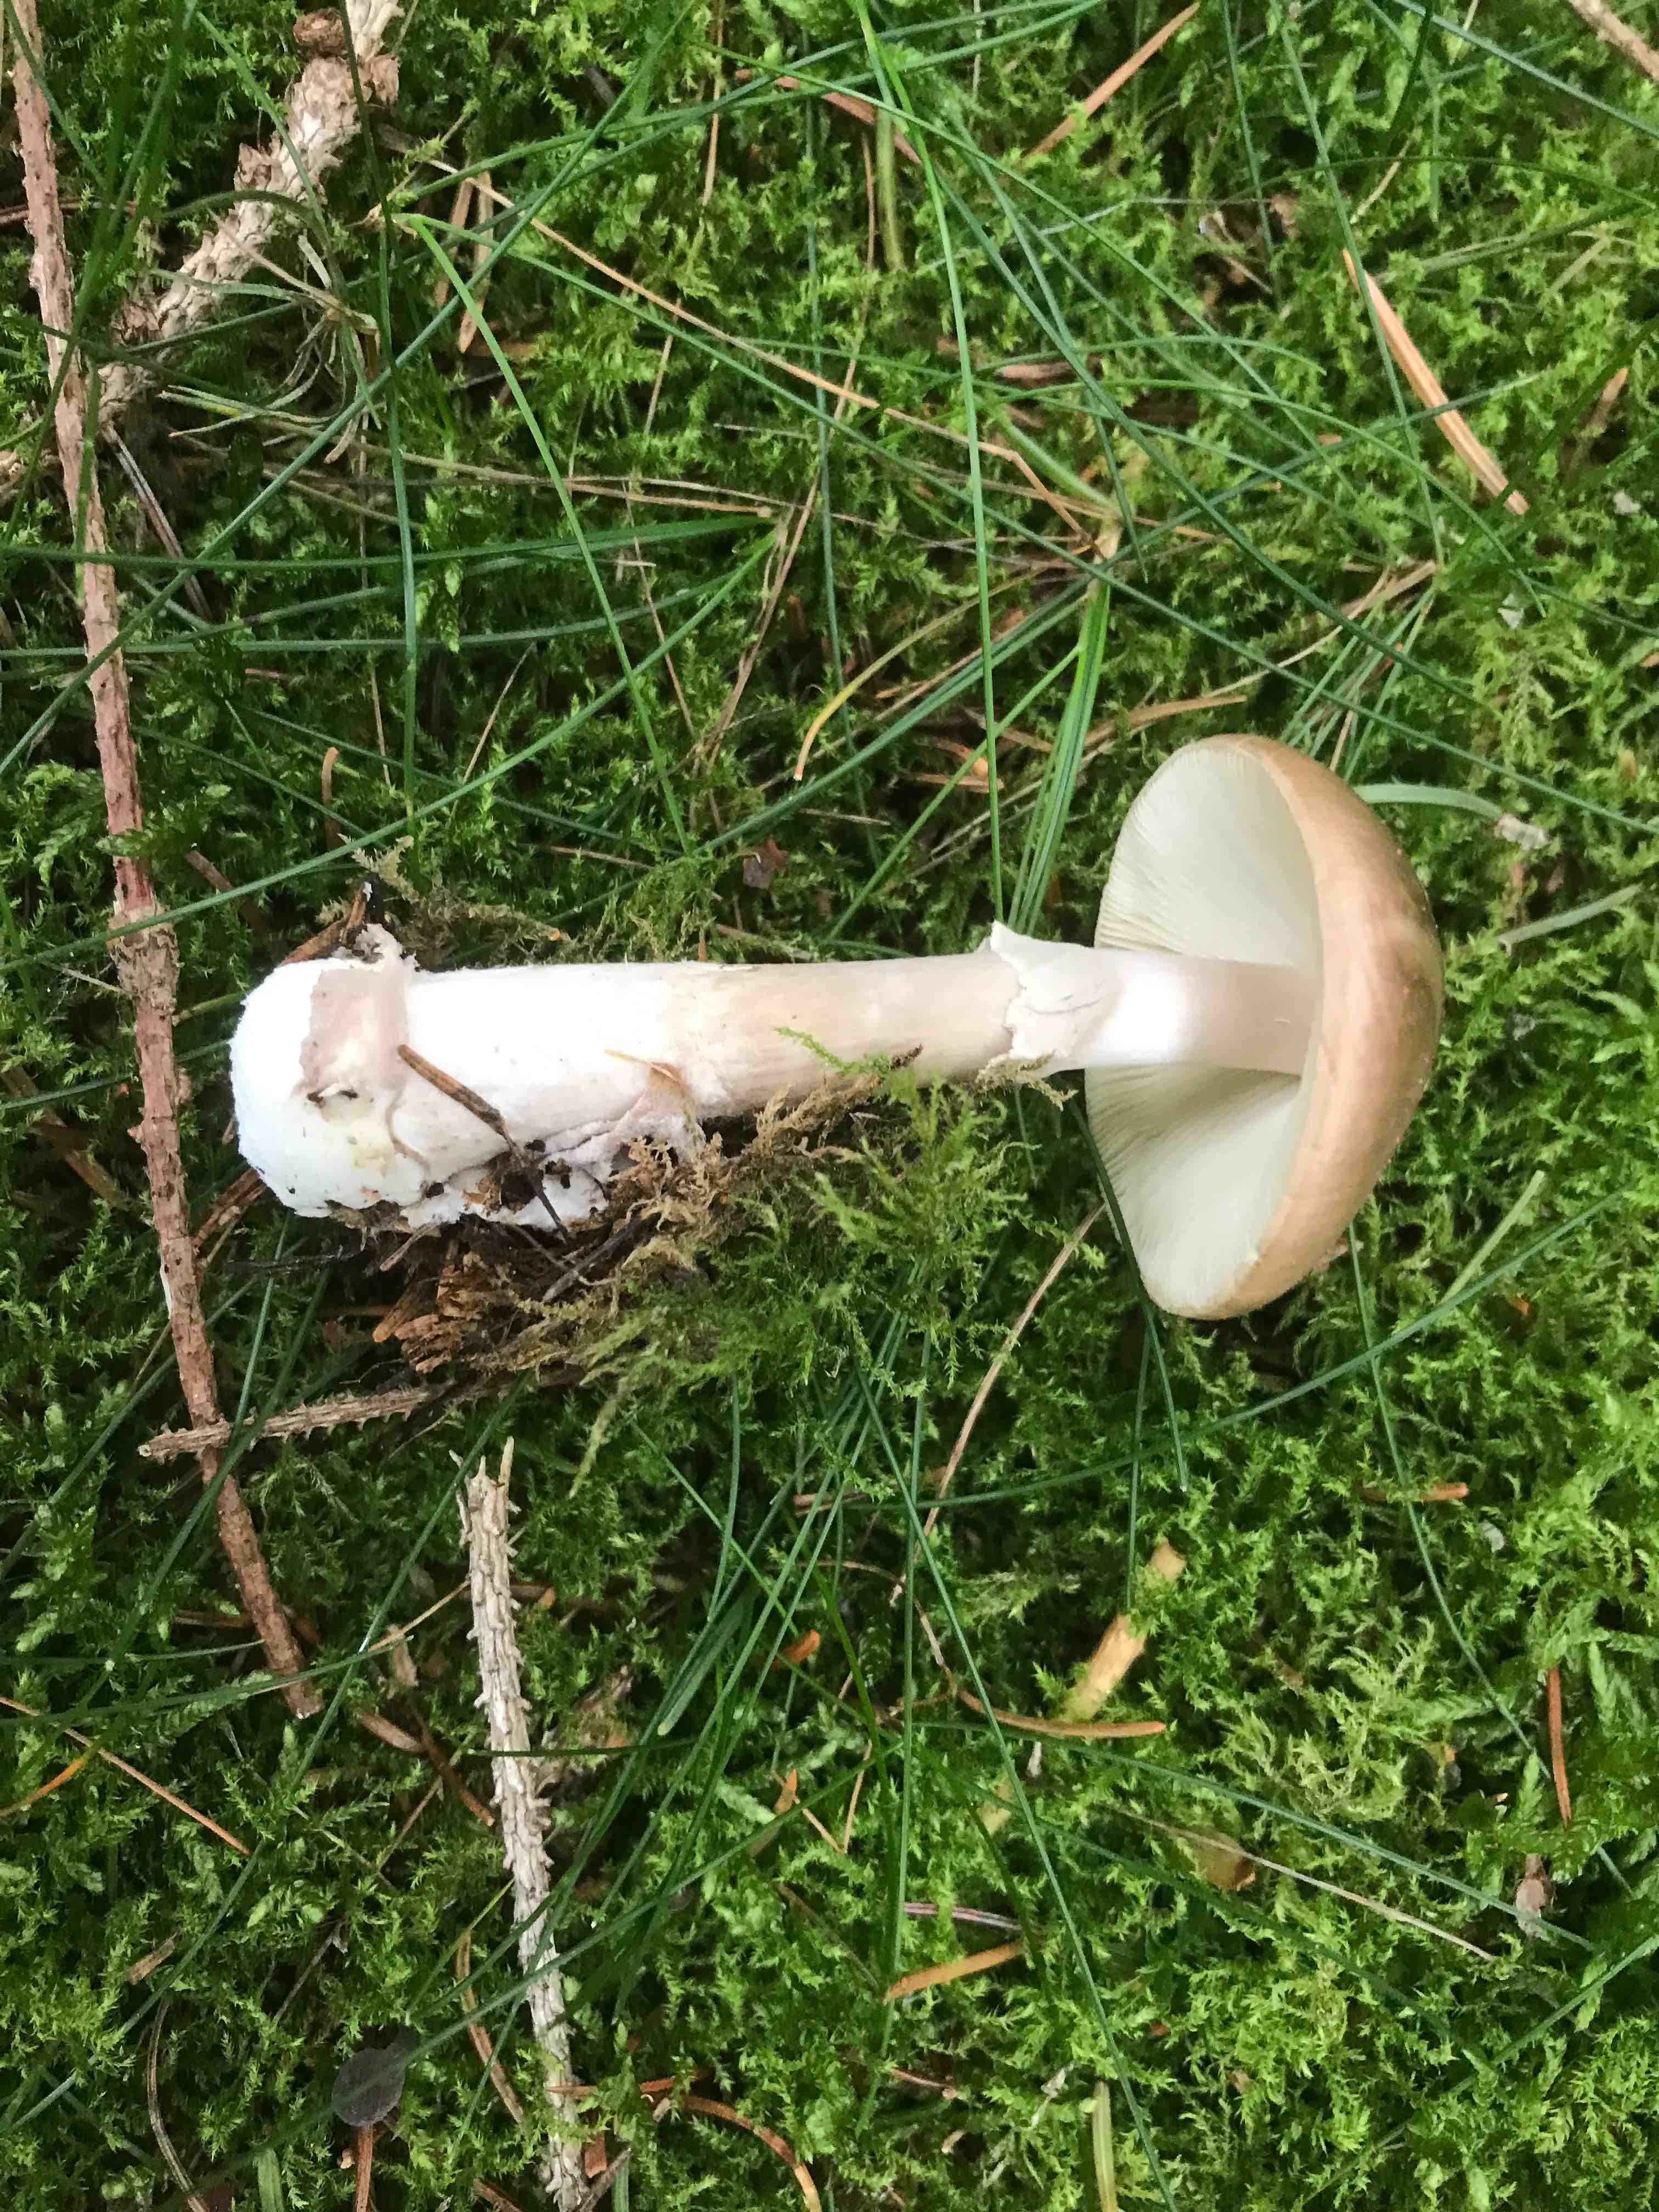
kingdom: Fungi
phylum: Basidiomycota
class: Agaricomycetes
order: Agaricales
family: Amanitaceae
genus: Amanita
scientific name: Amanita porphyria
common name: porfyr-fluesvamp
